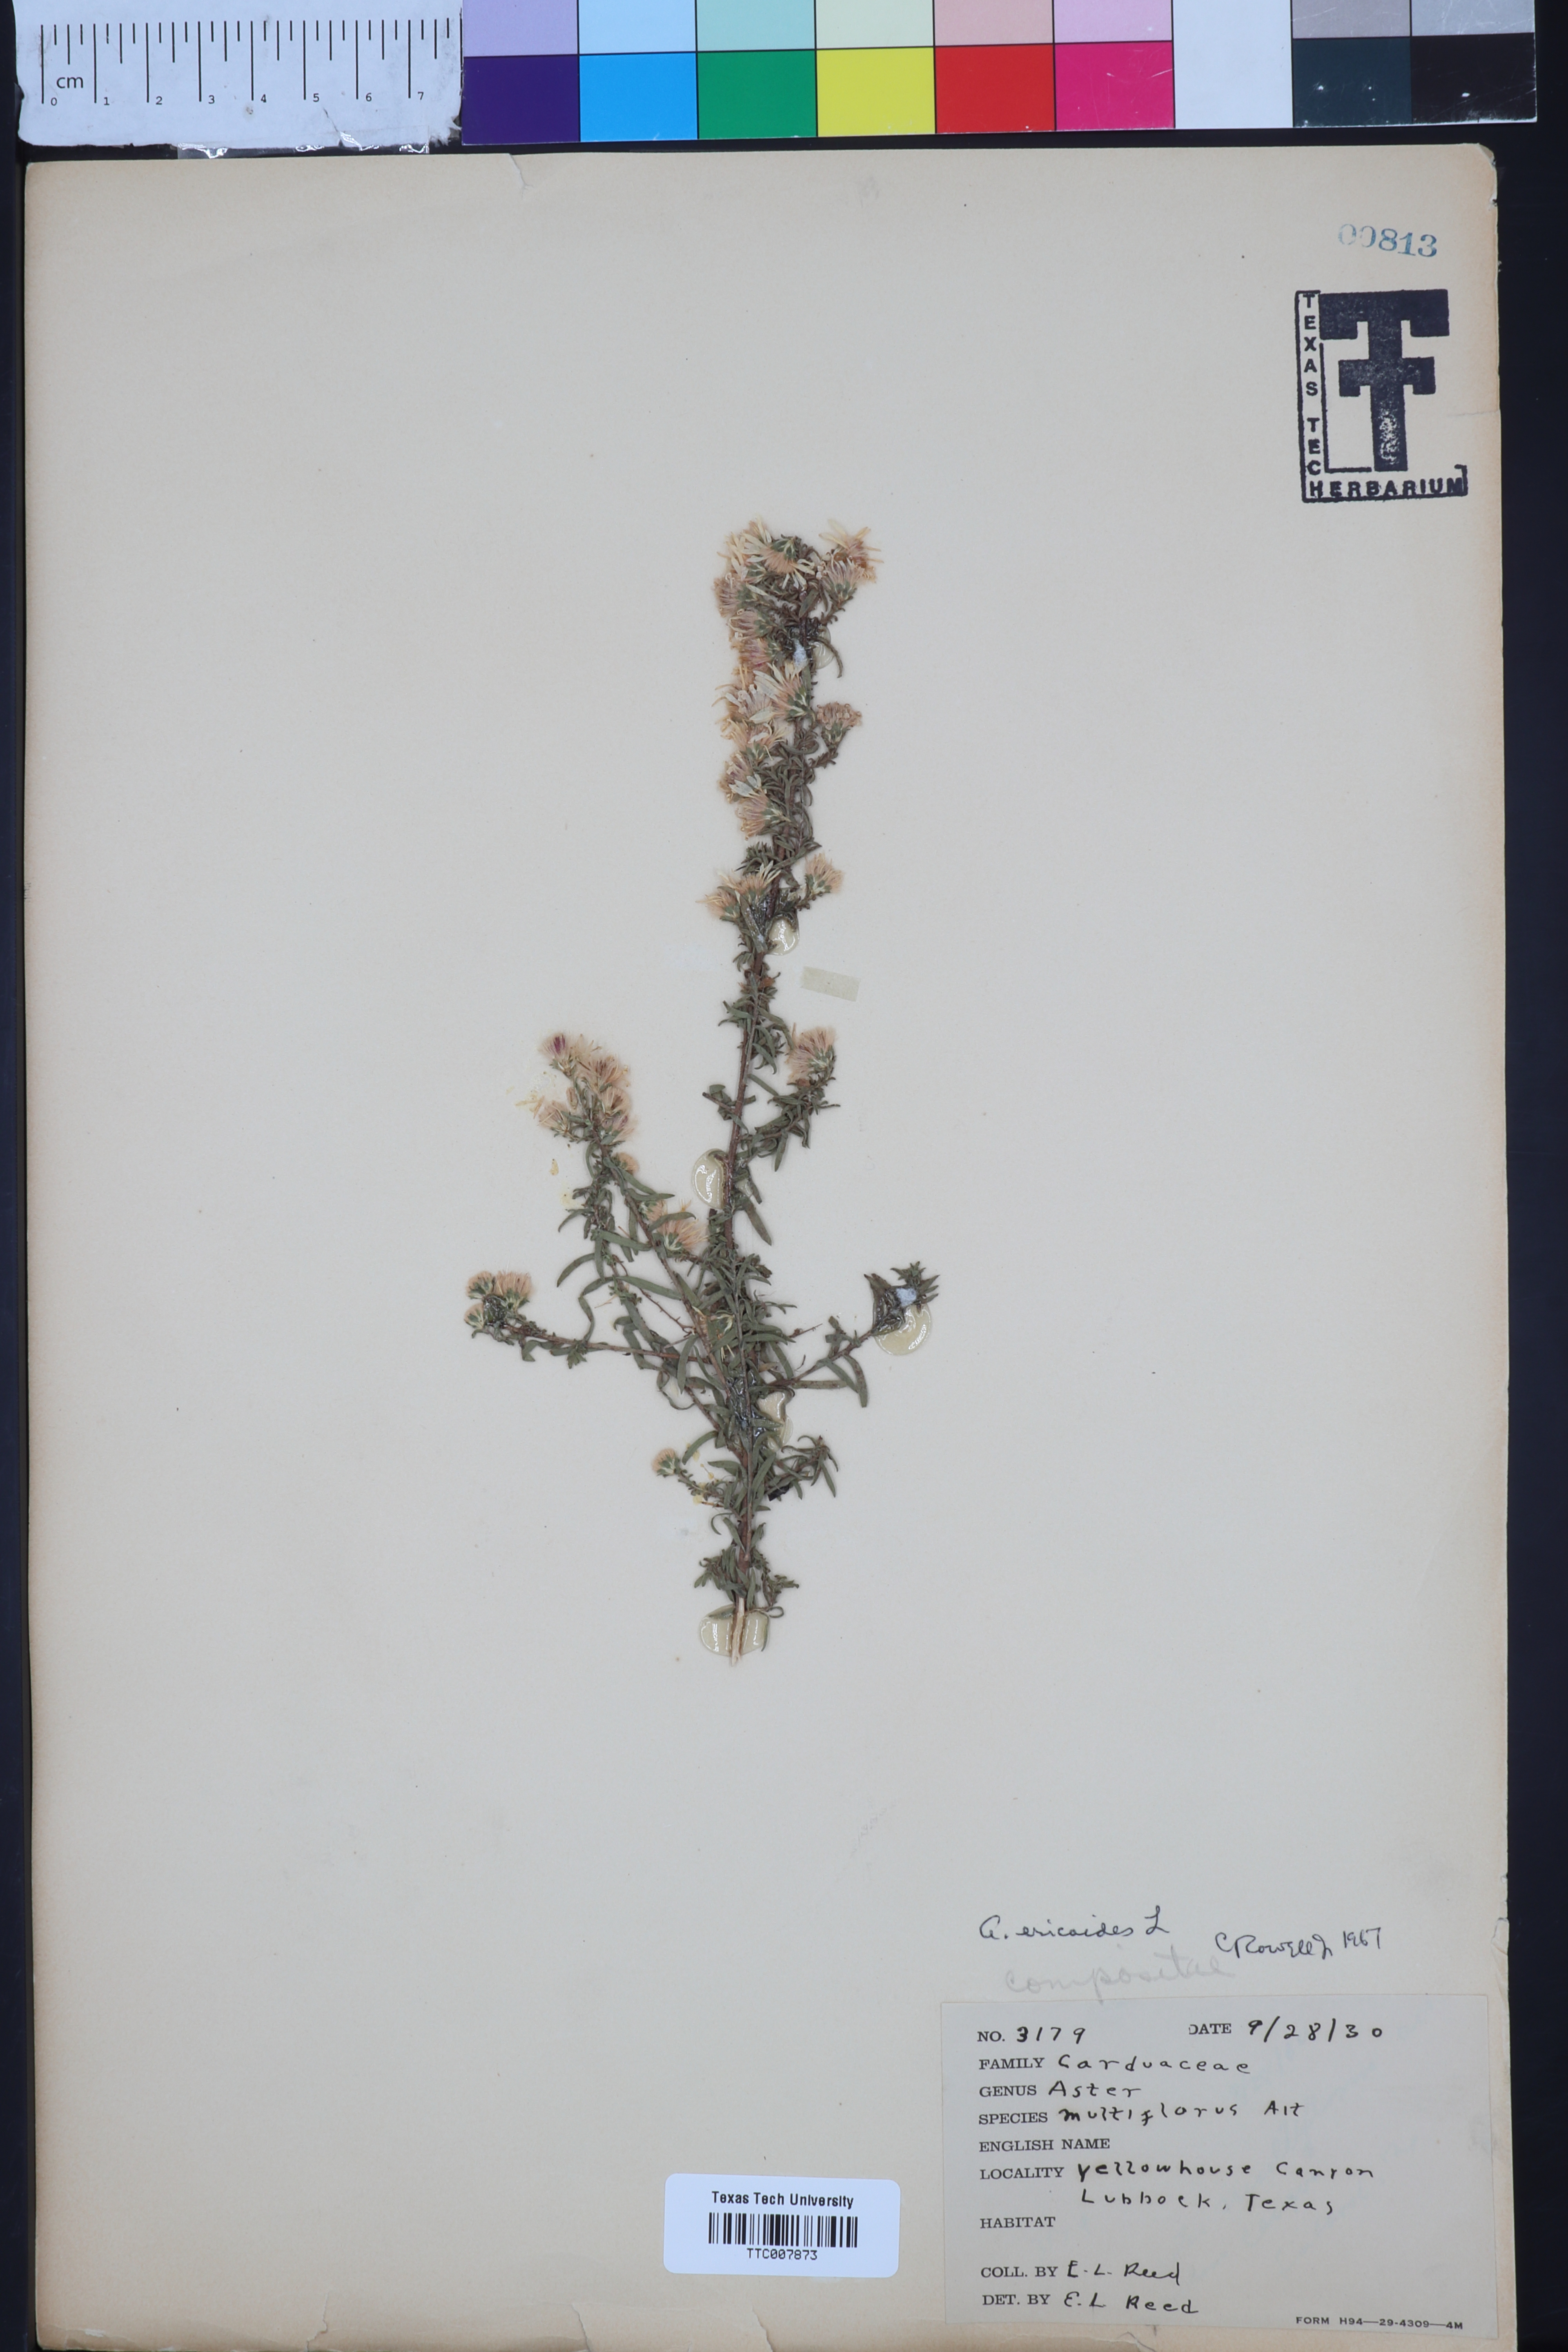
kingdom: Plantae
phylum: Tracheophyta
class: Magnoliopsida
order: Asterales
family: Asteraceae
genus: Symphyotrichum
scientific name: Symphyotrichum ericoides
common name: Heath aster
